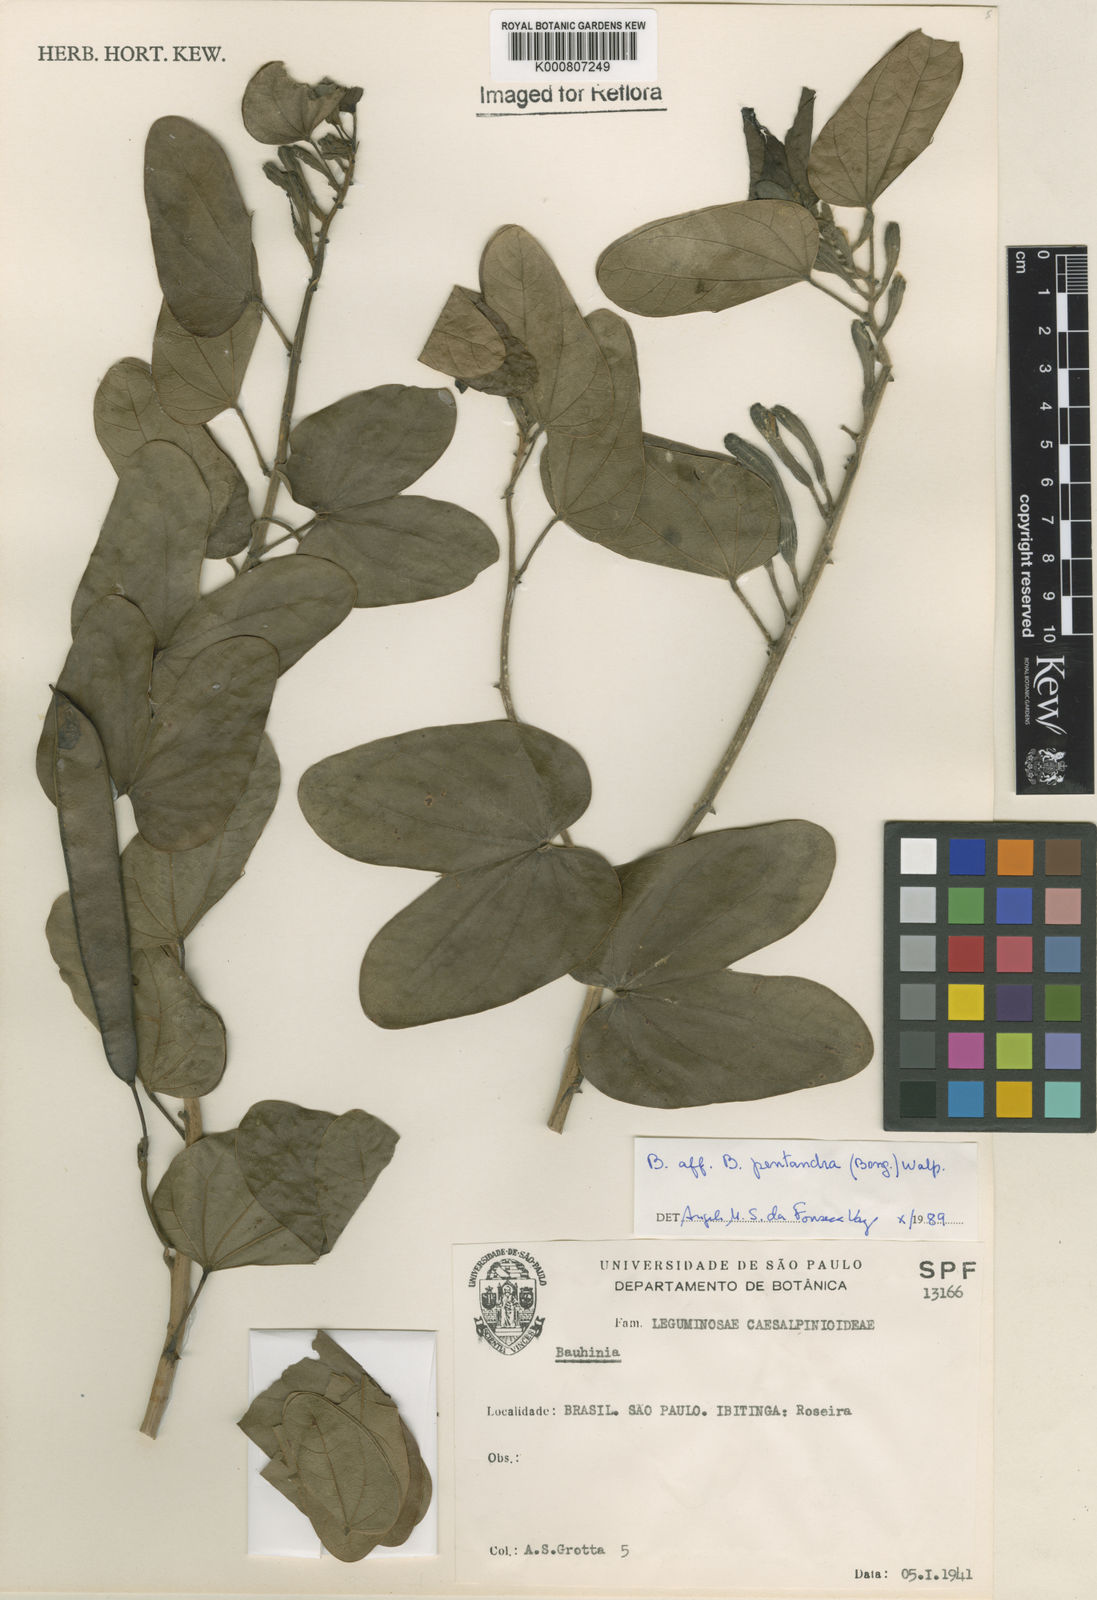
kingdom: Plantae
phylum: Tracheophyta
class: Magnoliopsida
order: Fabales
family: Fabaceae
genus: Bauhinia
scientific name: Bauhinia
